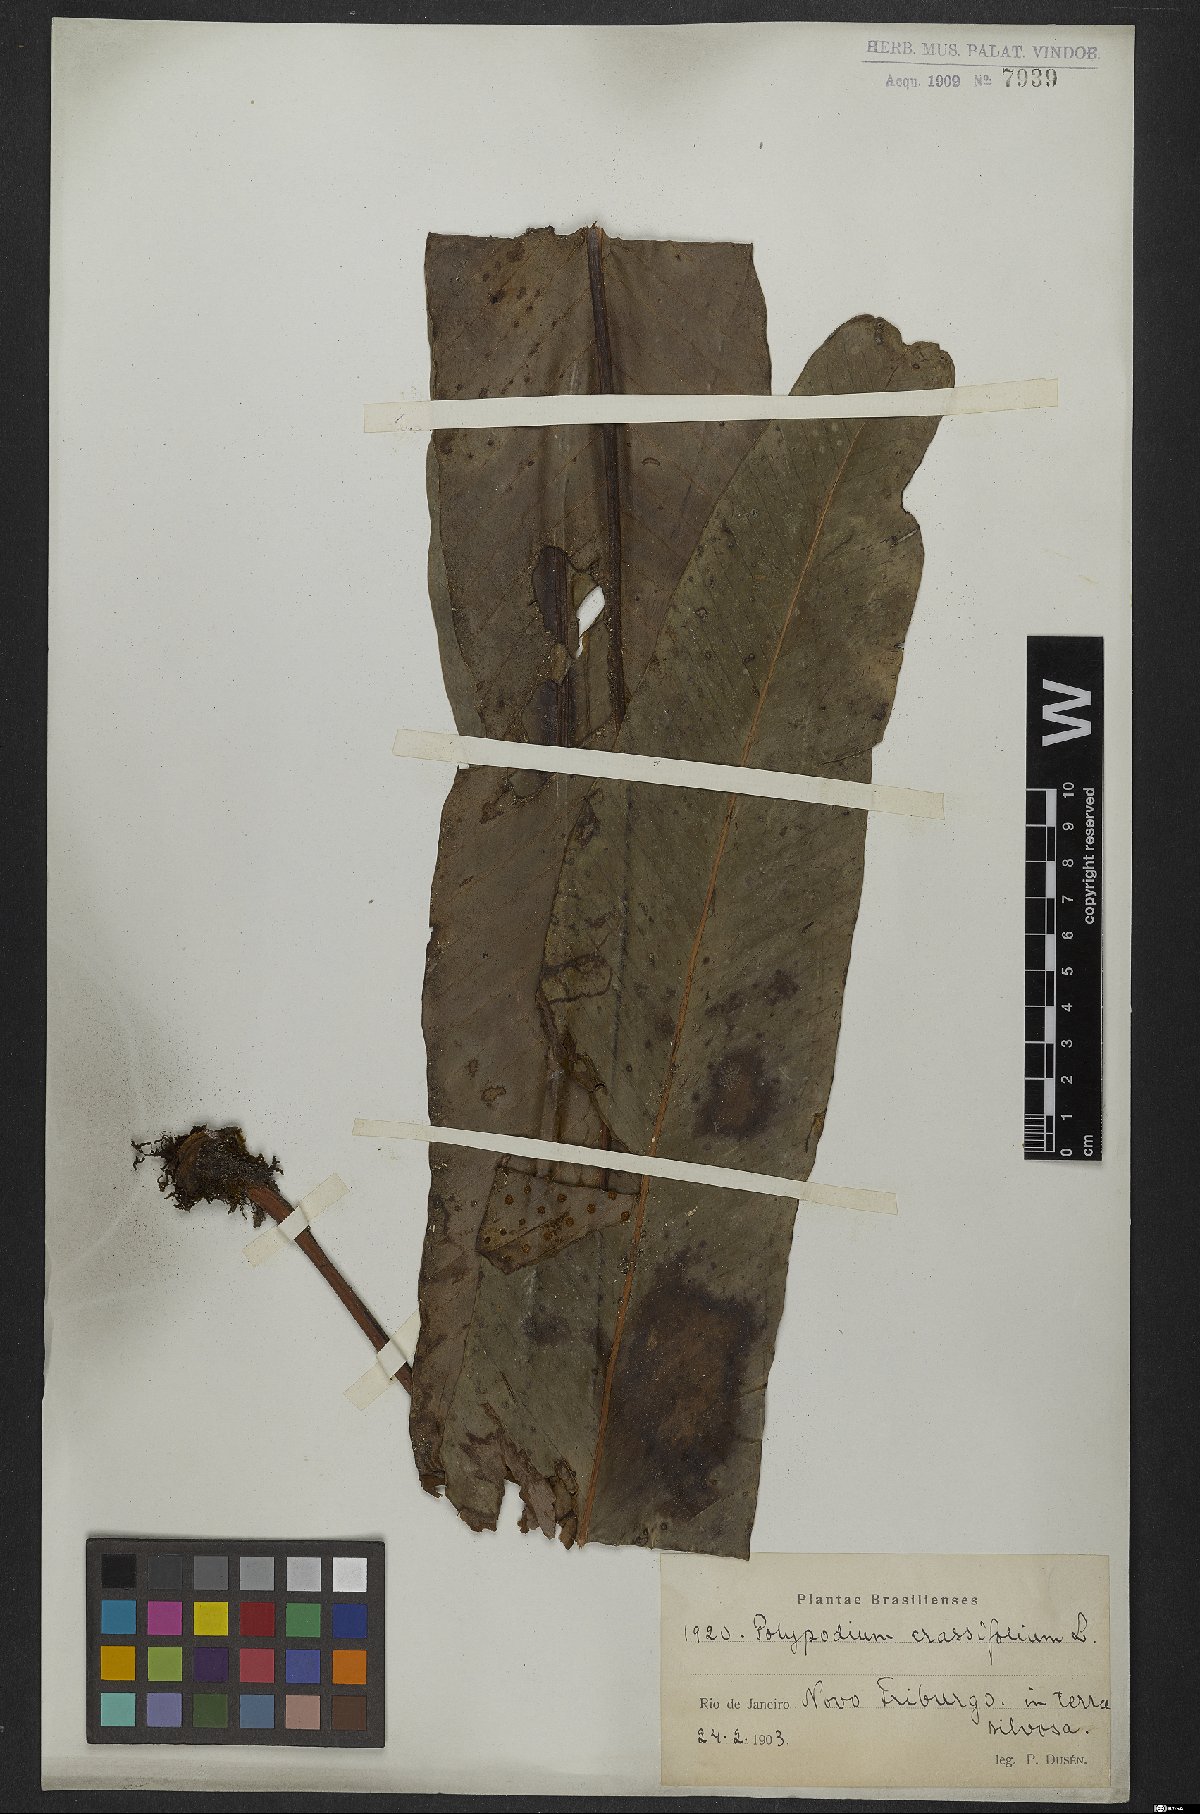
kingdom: Plantae
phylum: Tracheophyta
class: Polypodiopsida
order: Polypodiales
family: Polypodiaceae
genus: Niphidium
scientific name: Niphidium crassifolium
